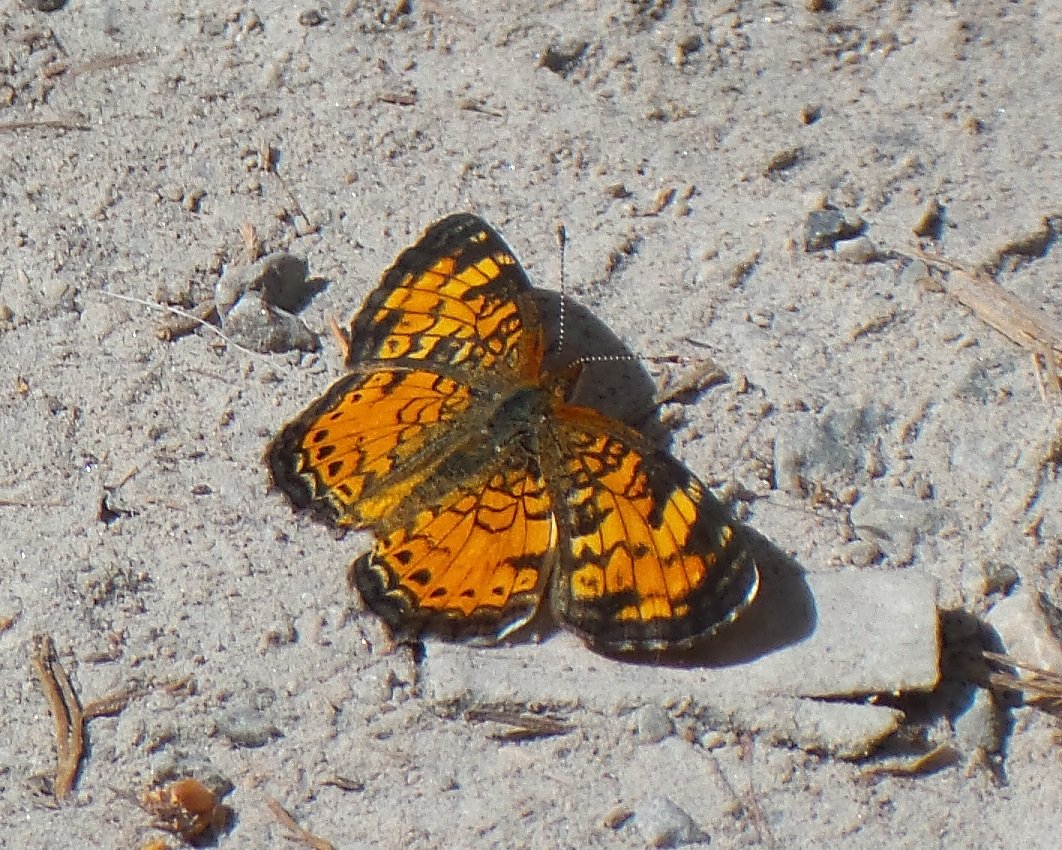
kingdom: Animalia
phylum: Arthropoda
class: Insecta
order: Lepidoptera
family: Nymphalidae
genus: Phyciodes
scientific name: Phyciodes tharos
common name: Northern Crescent
